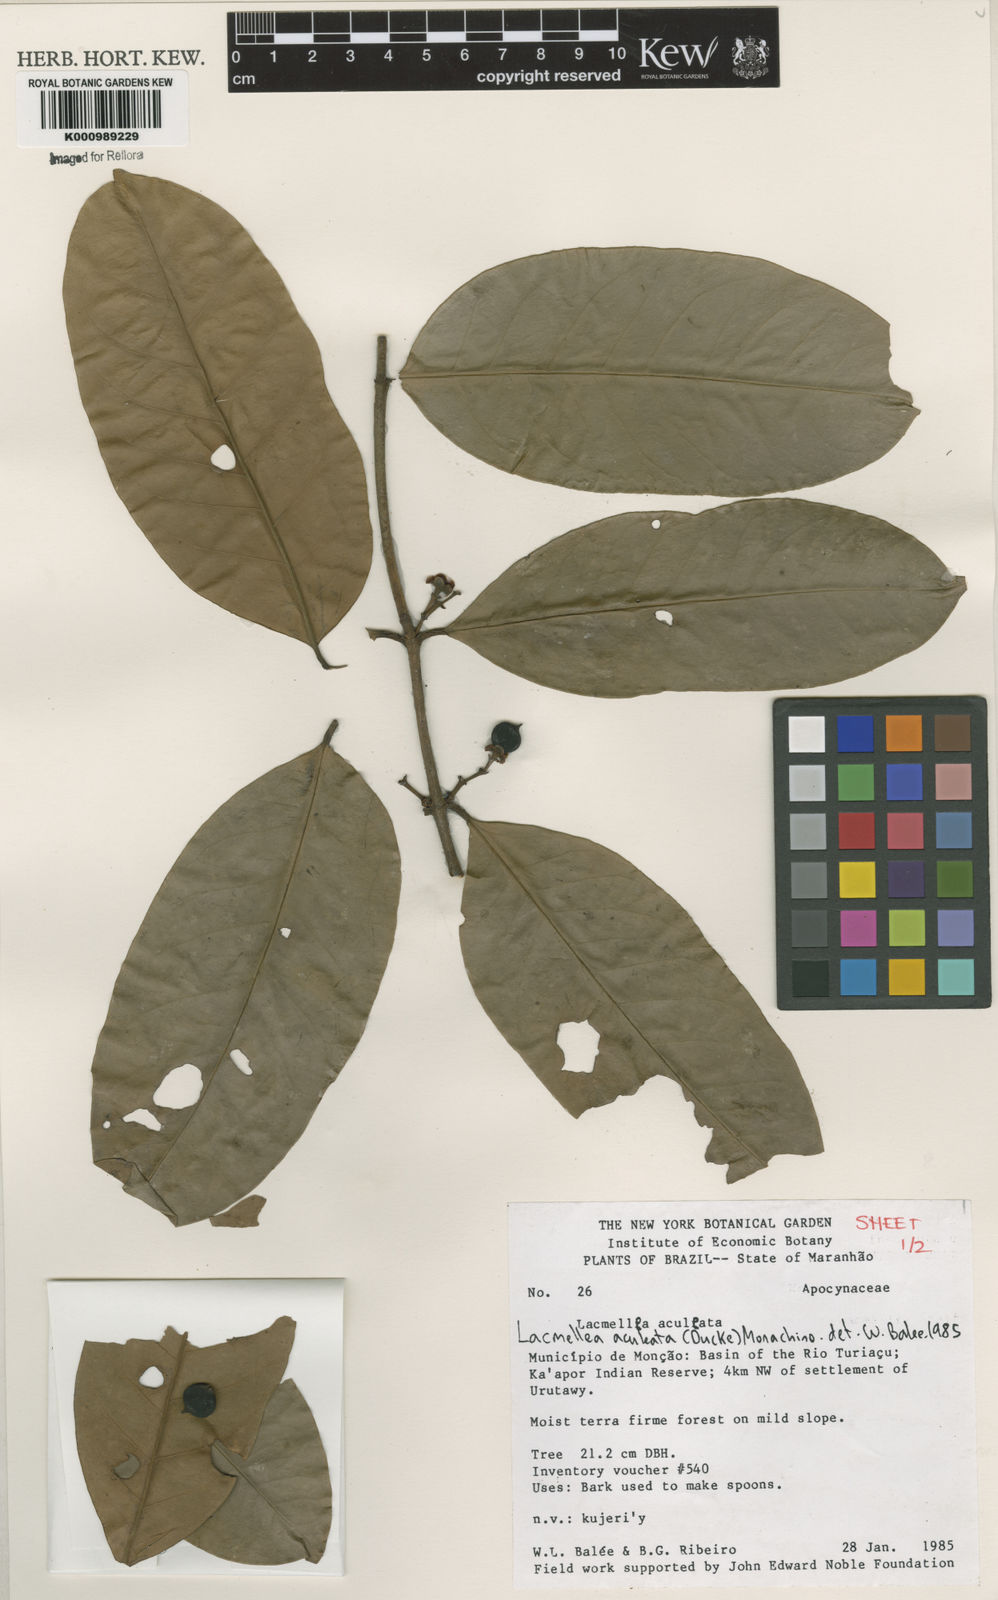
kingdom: Plantae
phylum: Tracheophyta
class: Magnoliopsida
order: Gentianales
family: Apocynaceae
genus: Lacmellea
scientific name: Lacmellea aculeata
